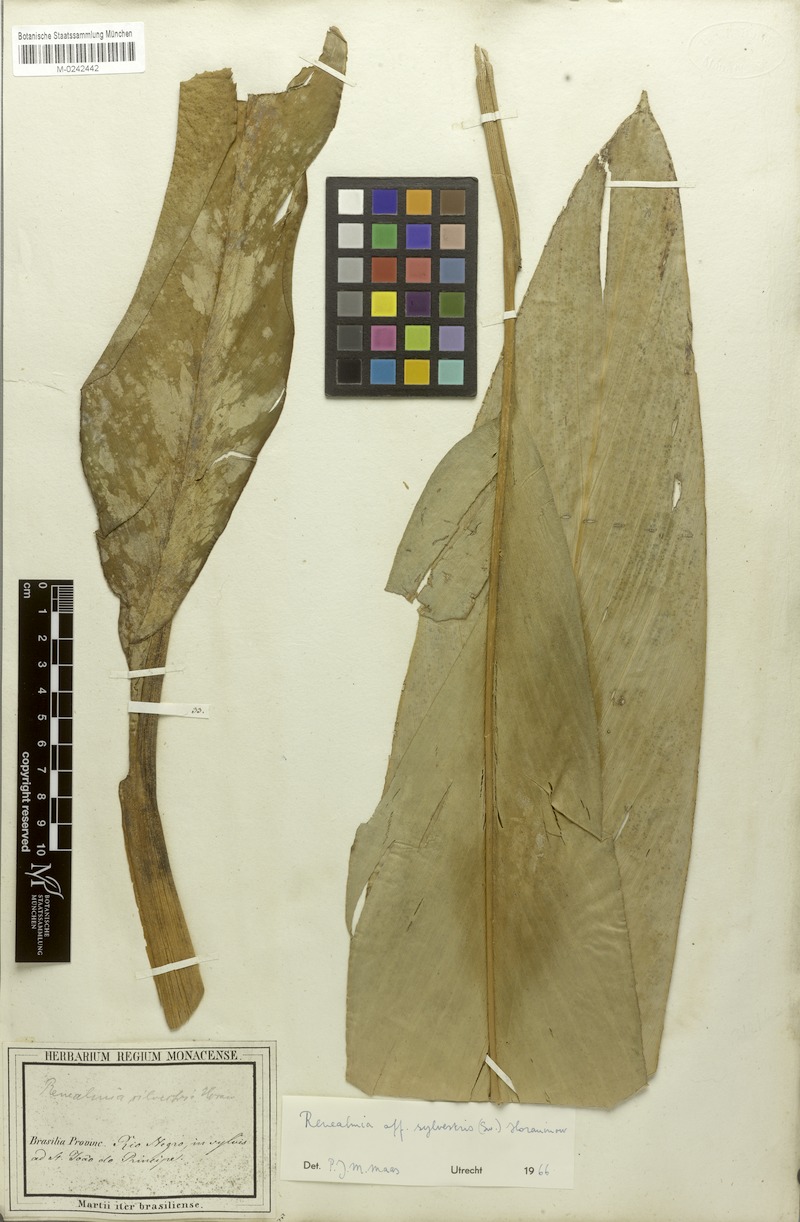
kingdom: Plantae
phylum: Tracheophyta
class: Liliopsida
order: Zingiberales
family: Zingiberaceae
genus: Renealmia
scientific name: Renealmia striata
